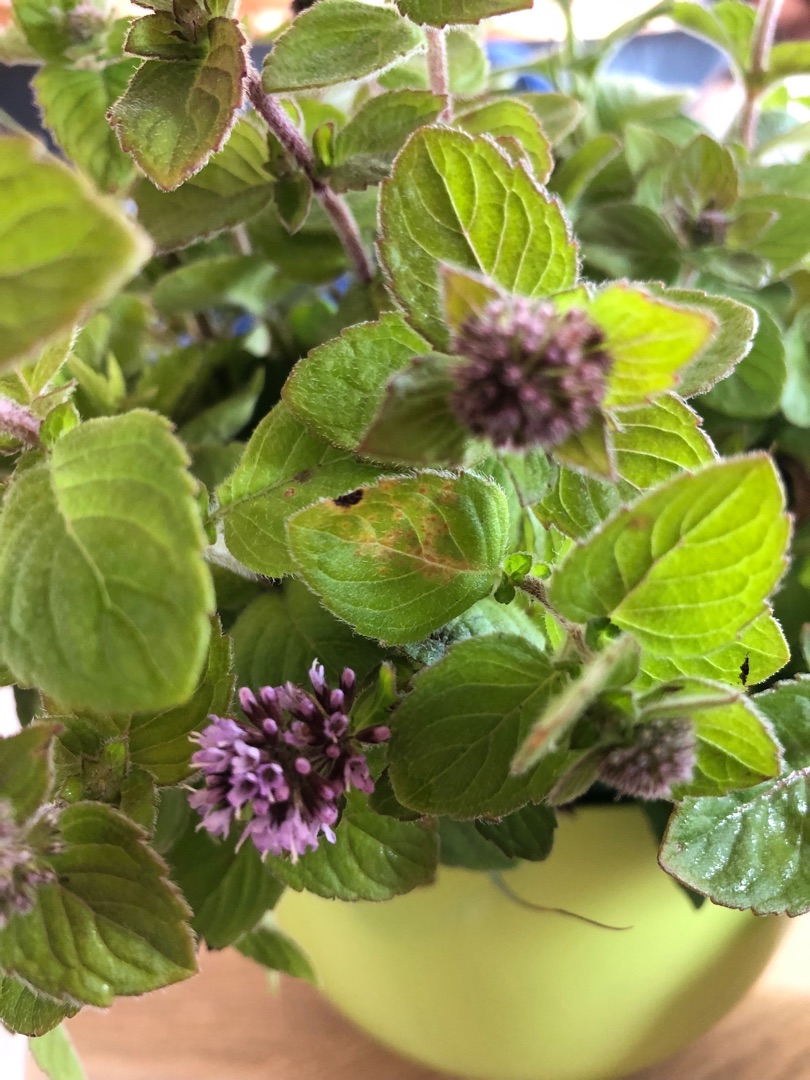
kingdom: Plantae
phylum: Tracheophyta
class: Magnoliopsida
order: Lamiales
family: Lamiaceae
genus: Mentha
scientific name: Mentha aquatica
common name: Vand-mynte
